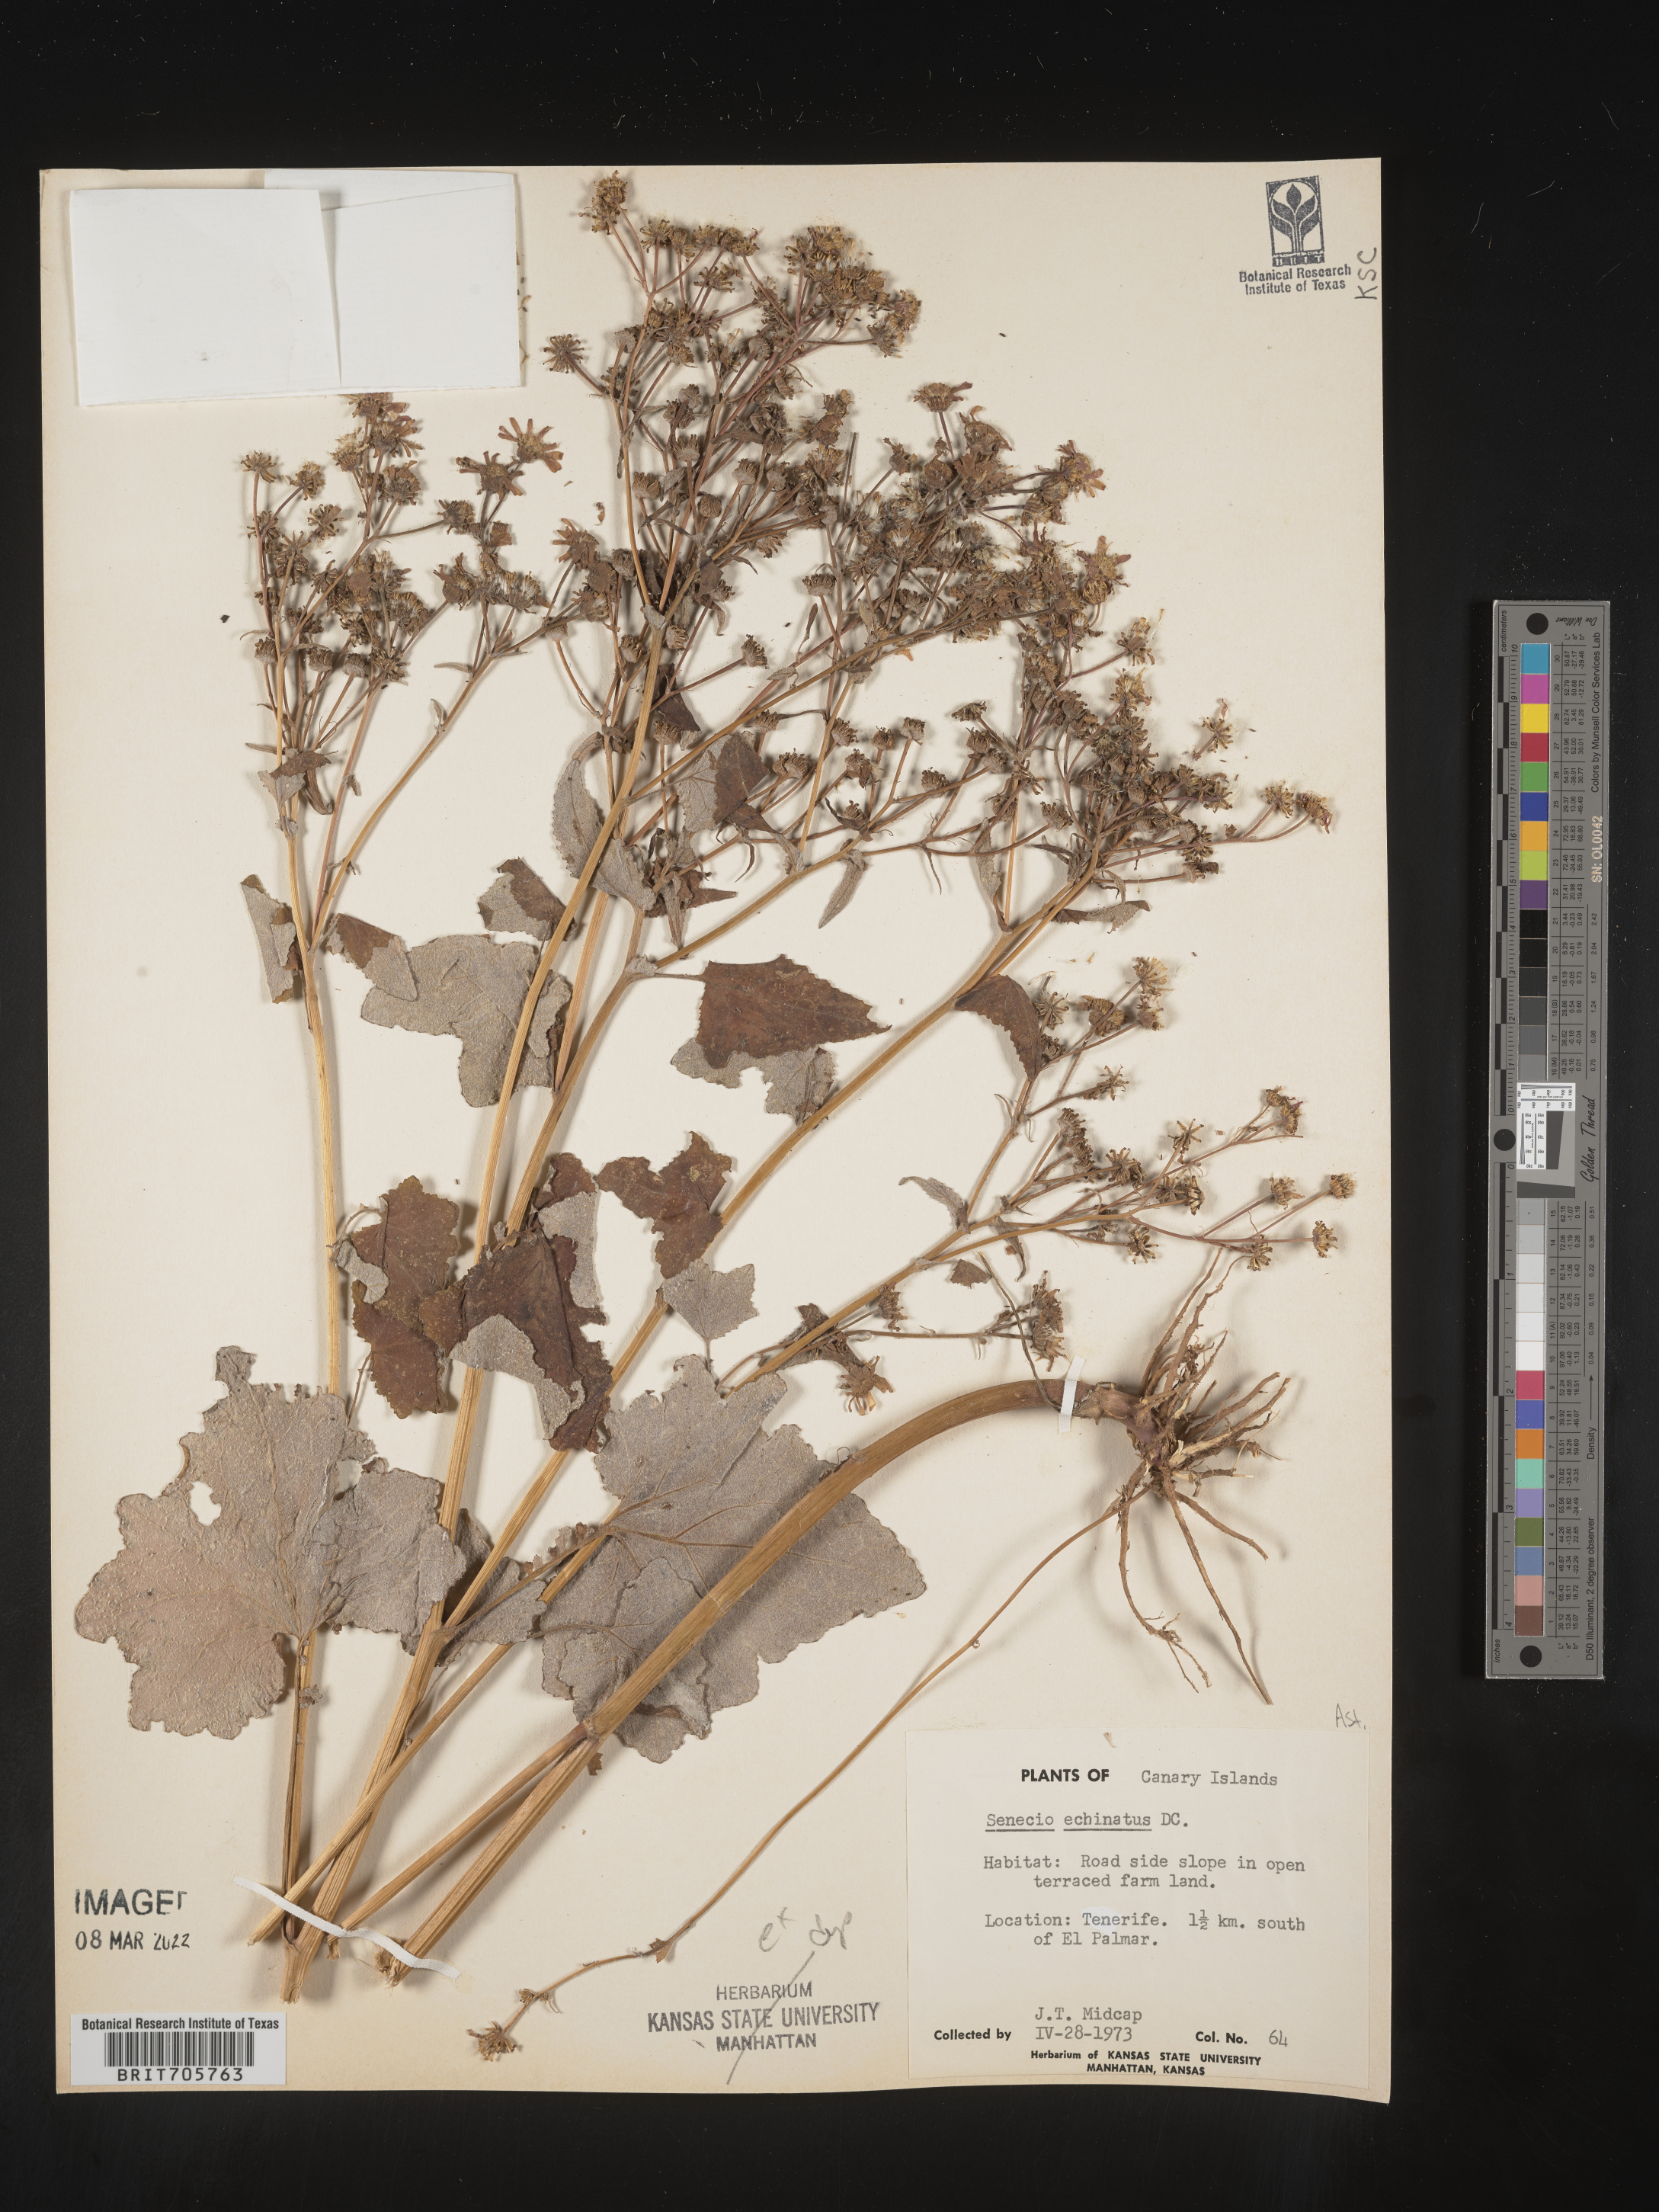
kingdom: Plantae
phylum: Tracheophyta
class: Magnoliopsida
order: Asterales
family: Asteraceae
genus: Senecio
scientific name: Senecio
